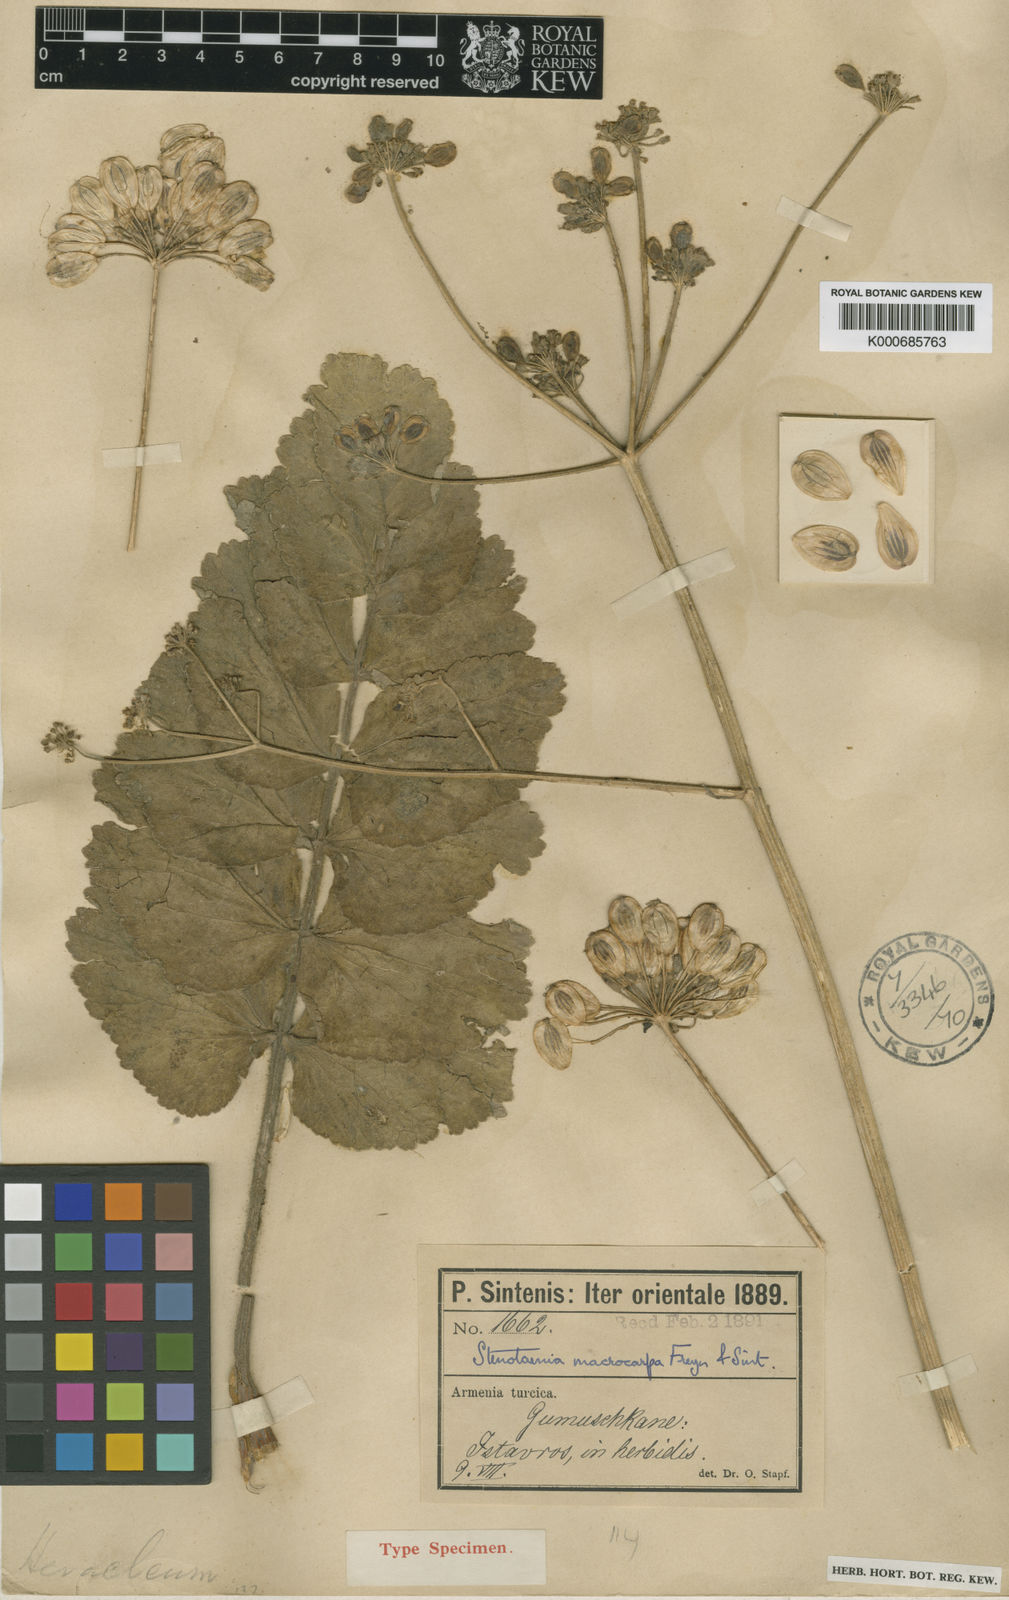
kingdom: Plantae
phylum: Tracheophyta
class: Magnoliopsida
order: Apiales
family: Apiaceae
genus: Stenotaenia
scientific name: Stenotaenia macrocarpa
